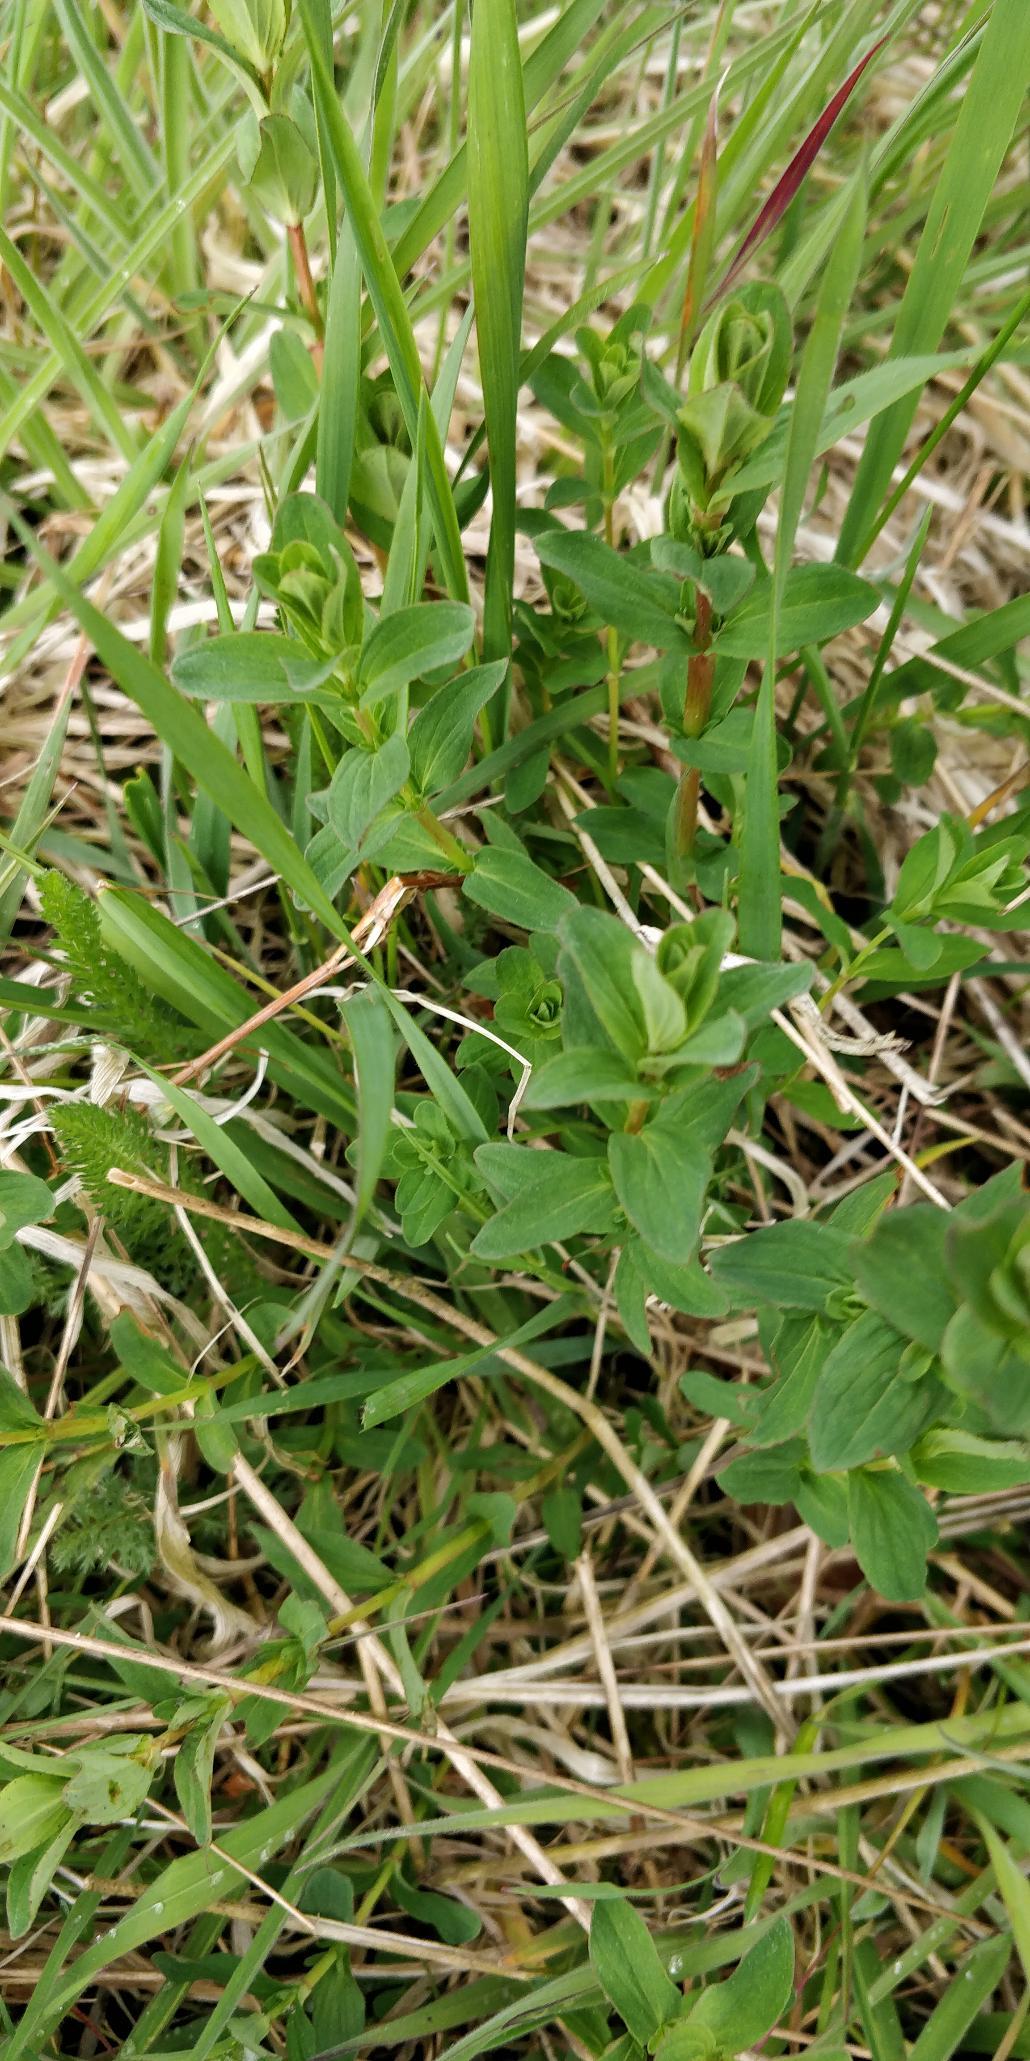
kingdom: Plantae
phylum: Tracheophyta
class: Magnoliopsida
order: Malpighiales
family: Hypericaceae
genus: Hypericum
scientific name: Hypericum perforatum
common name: Prikbladet perikon
